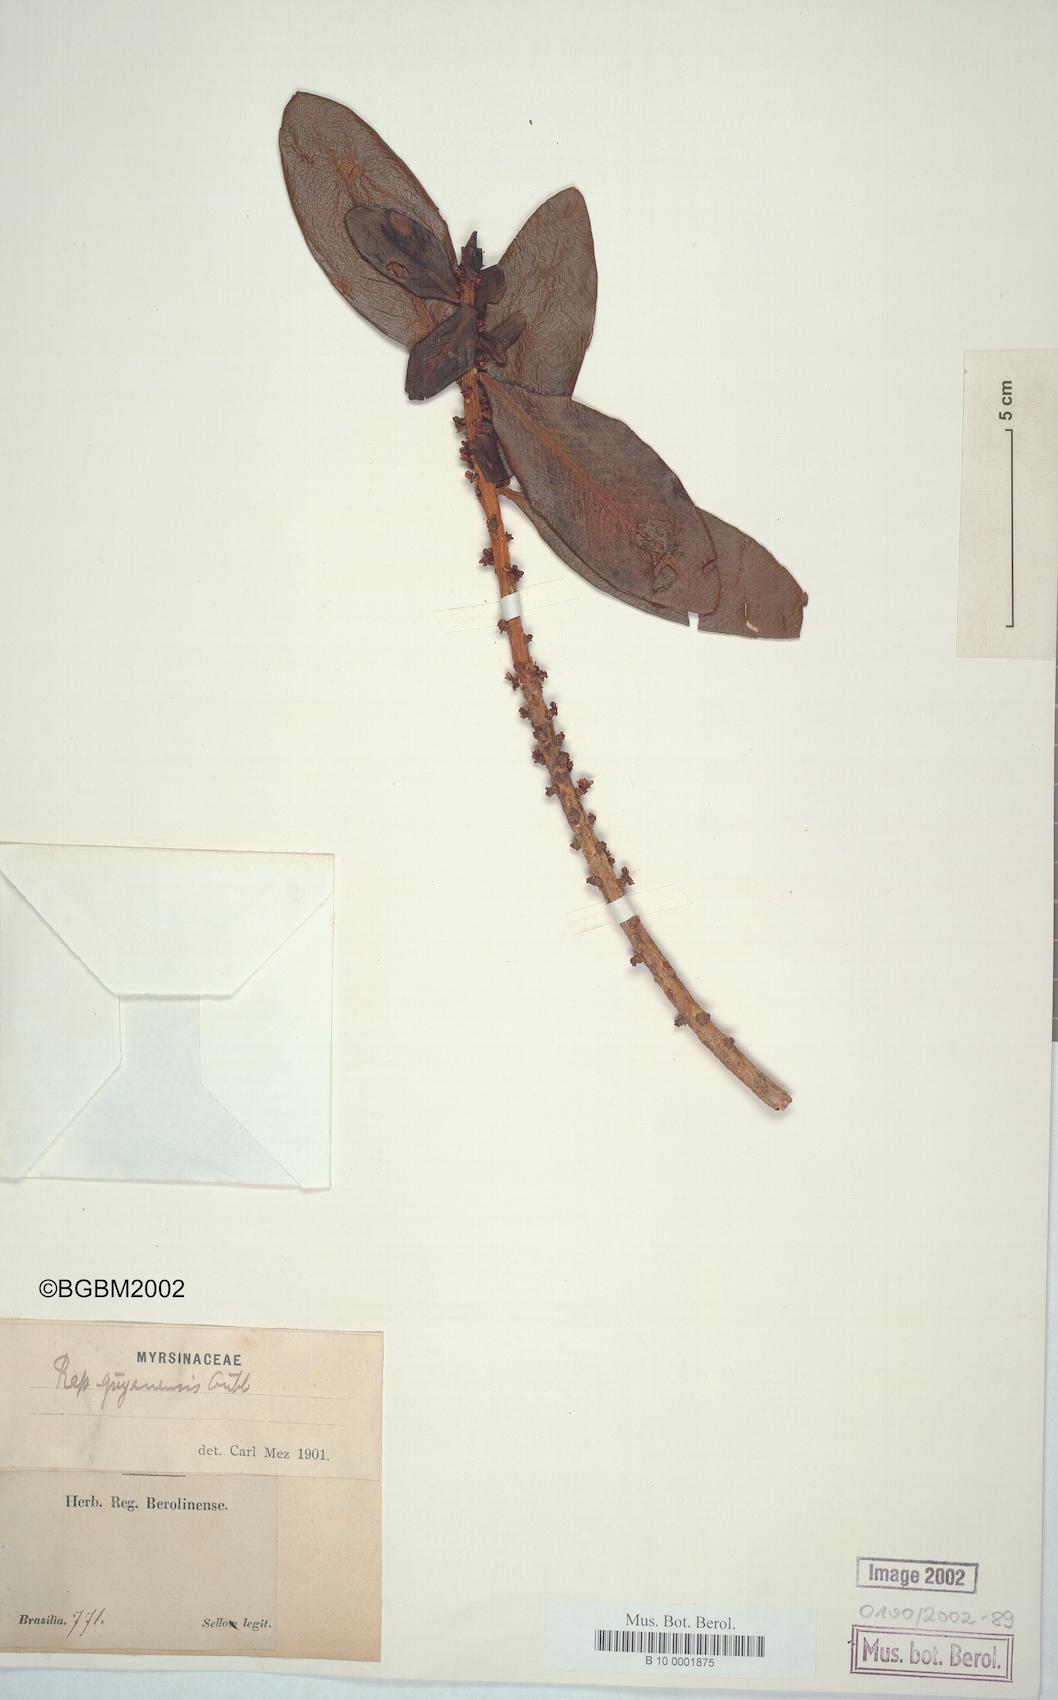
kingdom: Plantae
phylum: Tracheophyta
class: Magnoliopsida
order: Ericales
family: Primulaceae
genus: Myrsine
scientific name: Myrsine guianensis
